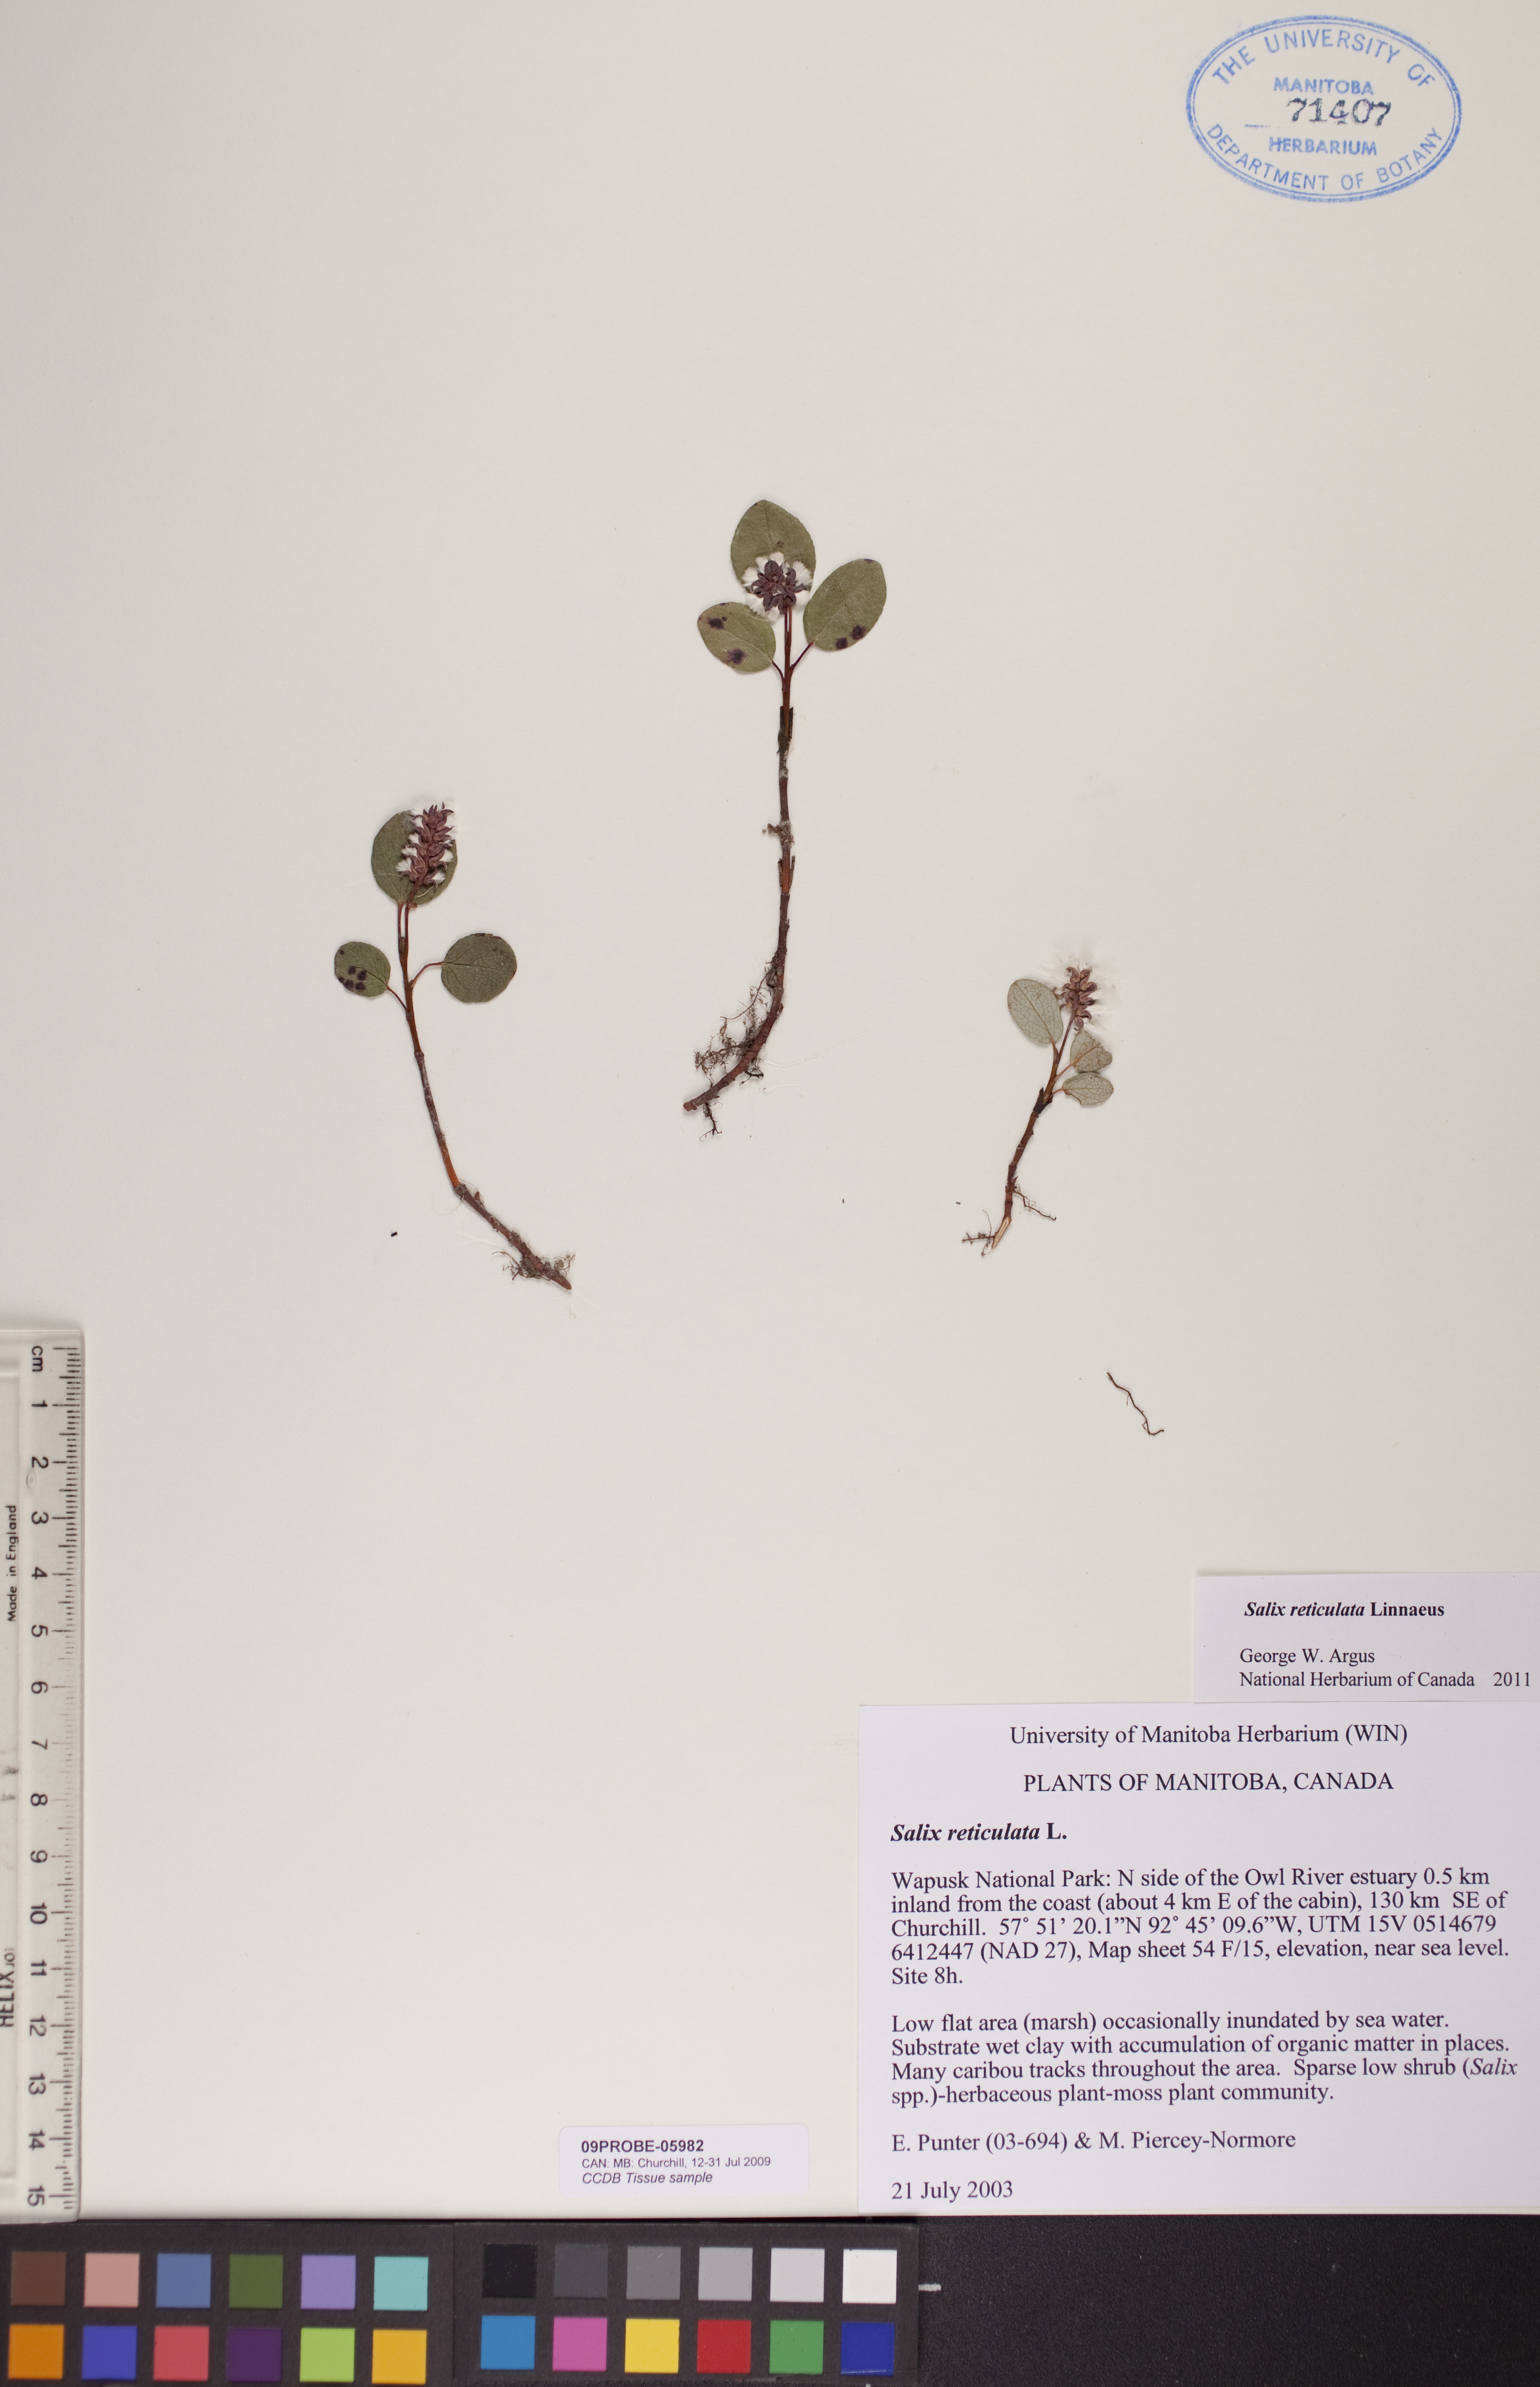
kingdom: Plantae
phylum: Tracheophyta
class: Magnoliopsida
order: Malpighiales
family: Salicaceae
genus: Salix
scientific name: Salix reticulata
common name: Net-leaved willow
